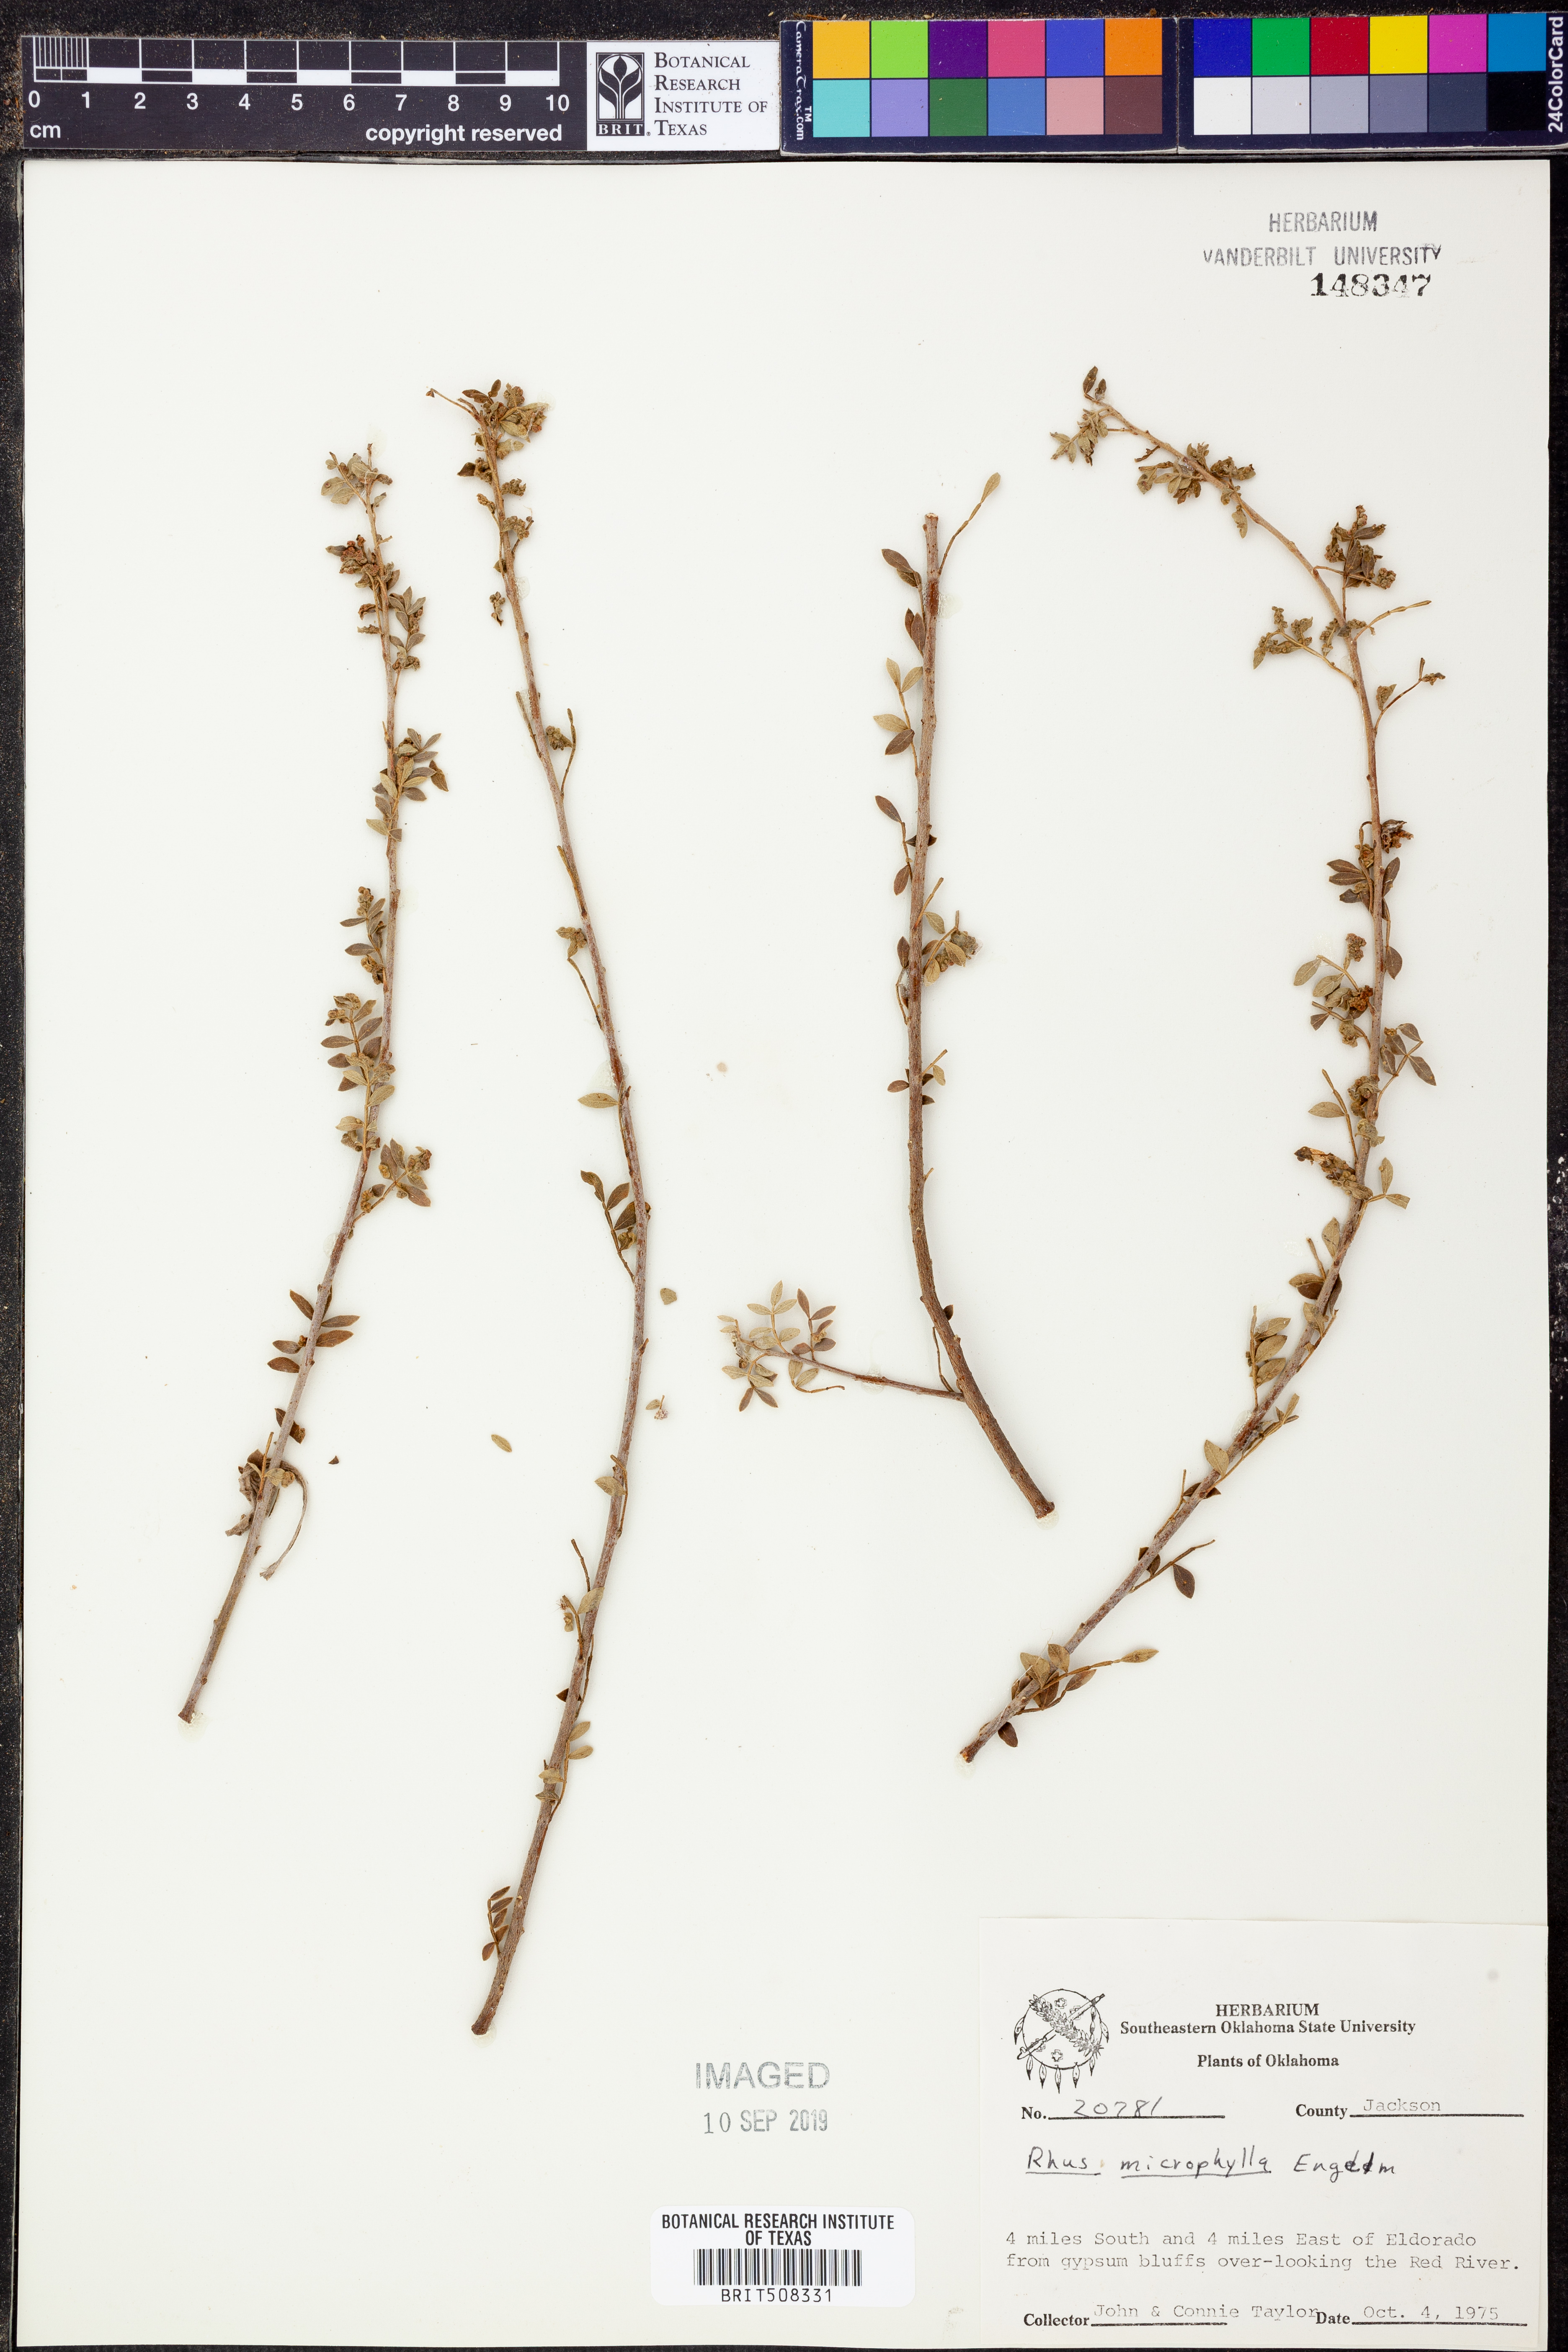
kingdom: Plantae
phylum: Tracheophyta
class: Magnoliopsida
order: Sapindales
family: Anacardiaceae
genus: Rhus
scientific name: Rhus microphylla
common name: Desert sumac
